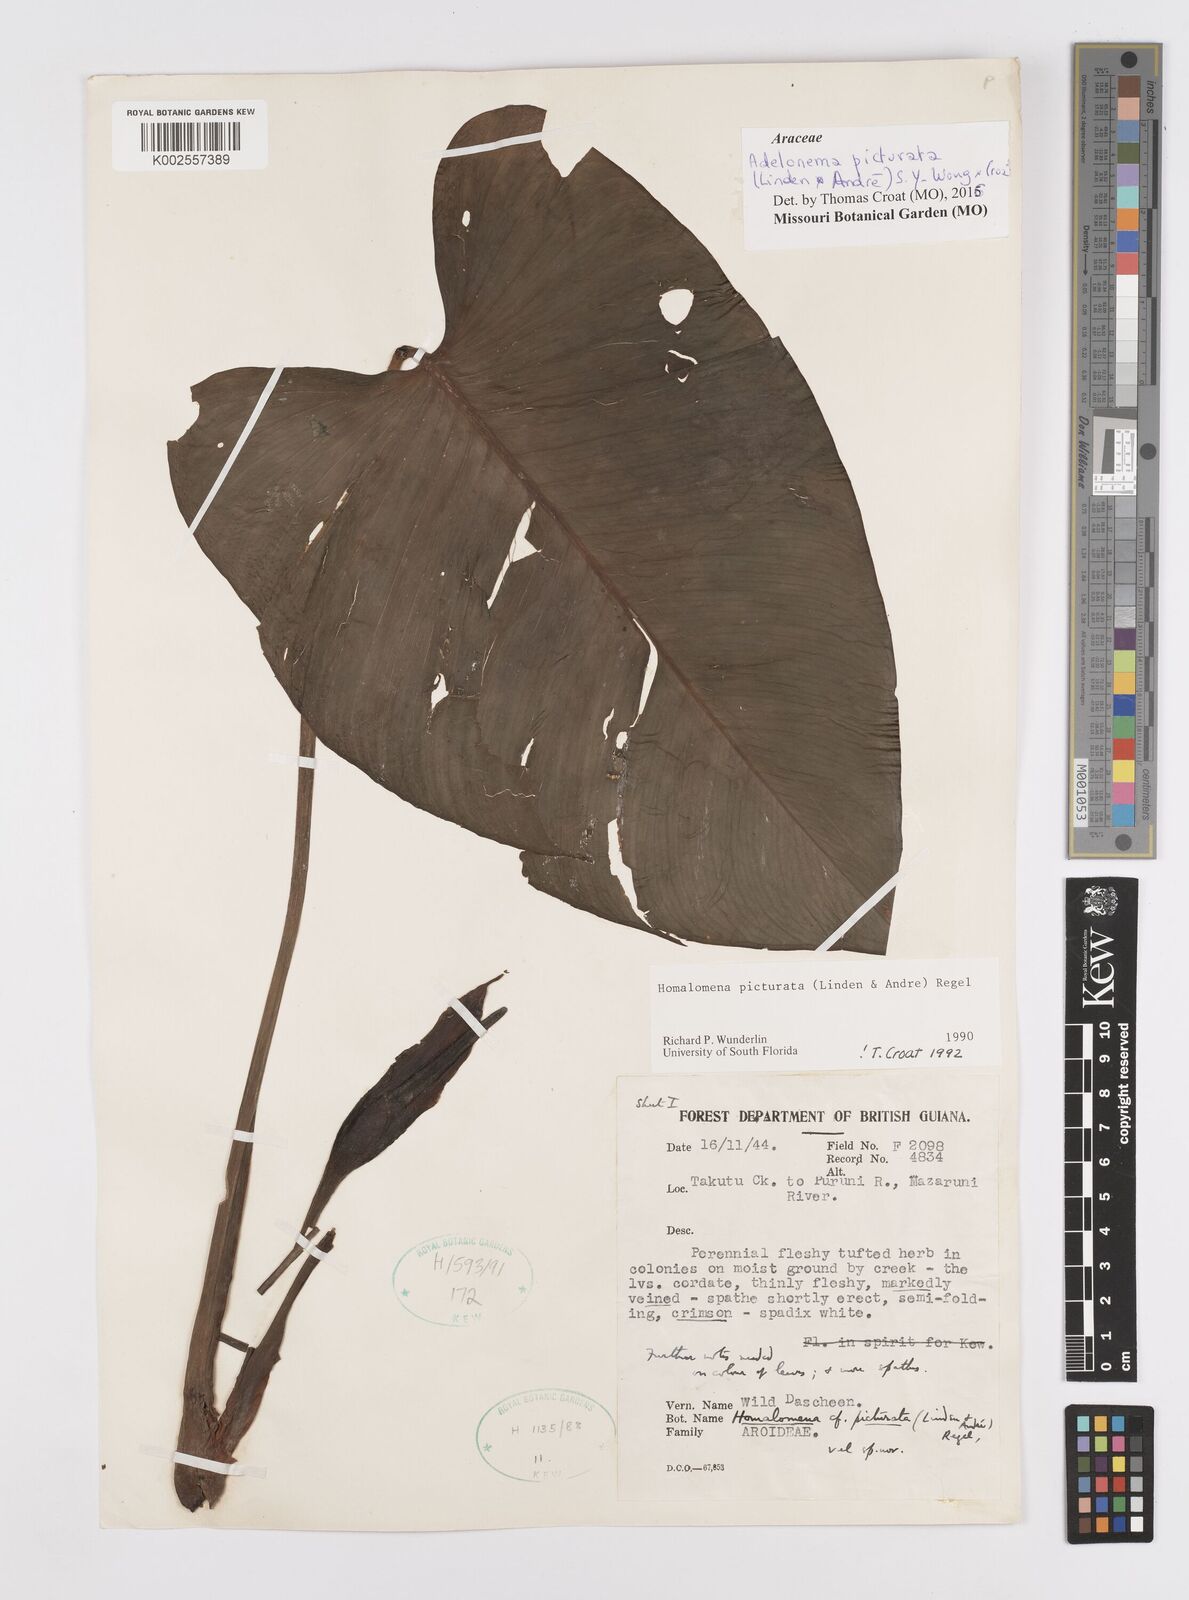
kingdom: Plantae
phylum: Tracheophyta
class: Liliopsida
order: Alismatales
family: Araceae
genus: Adelonema
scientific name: Adelonema picturatum
